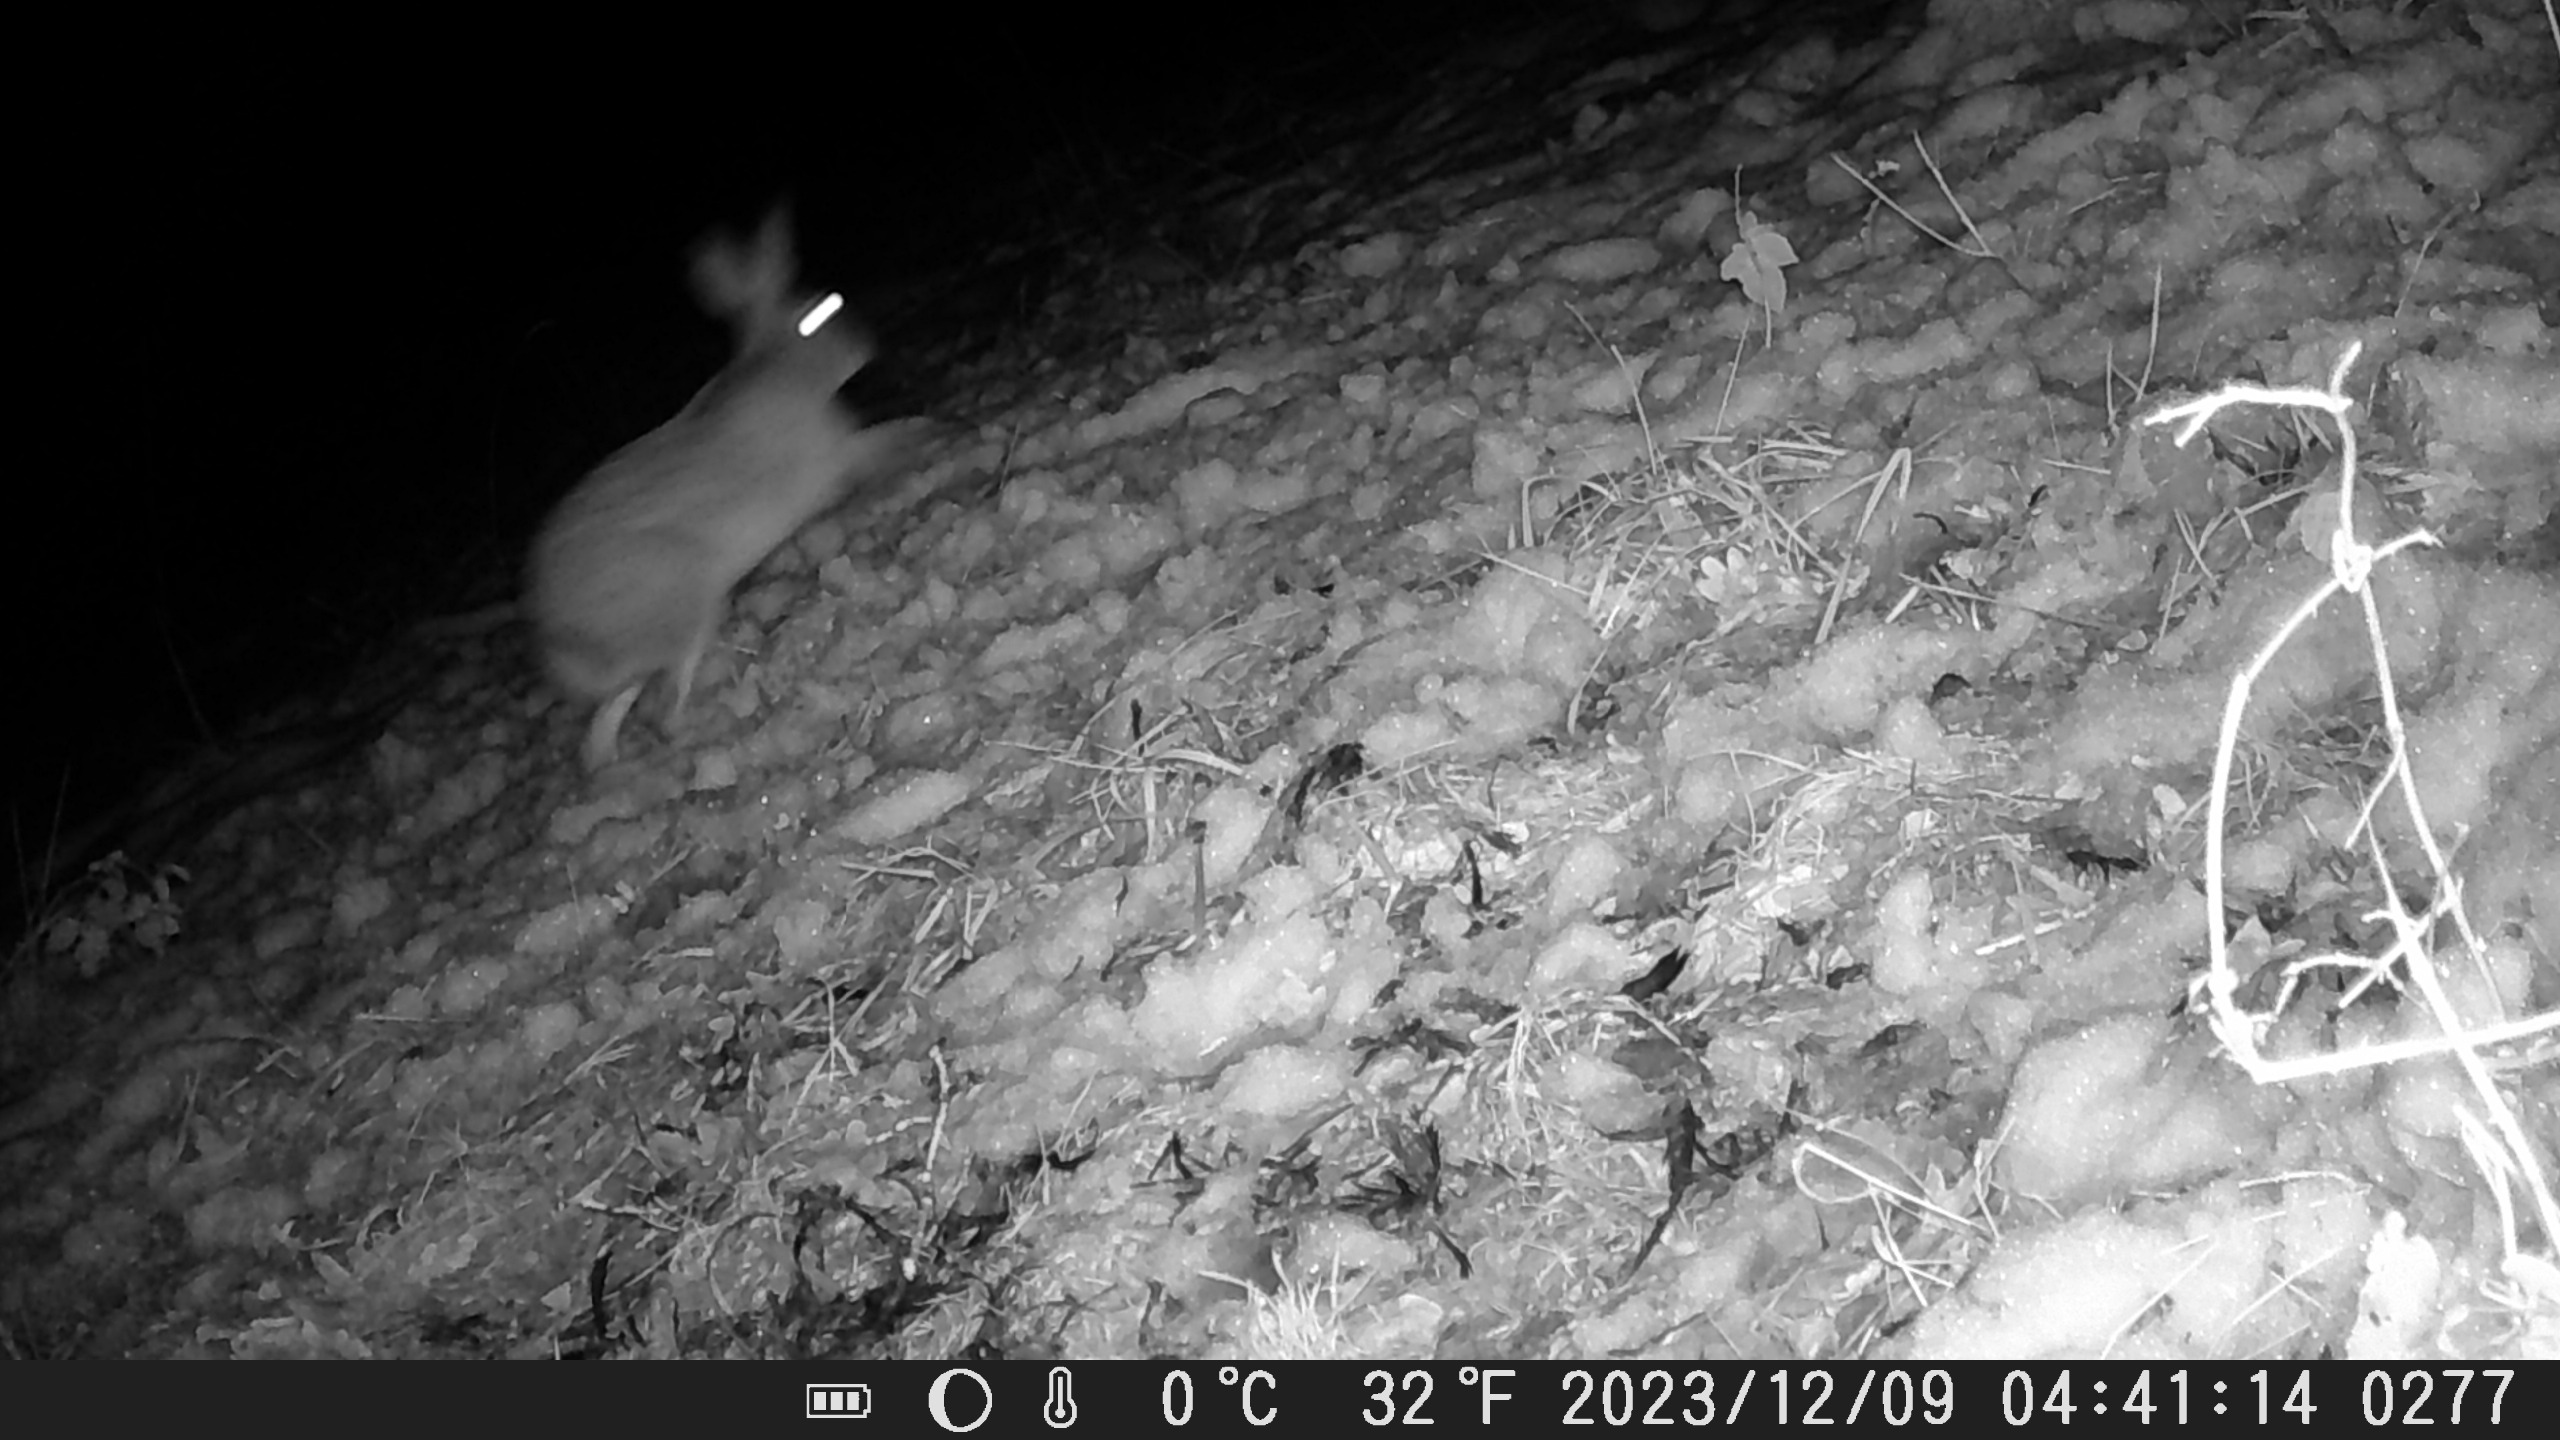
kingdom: Animalia
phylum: Chordata
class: Mammalia
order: Lagomorpha
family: Leporidae
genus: Lepus
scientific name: Lepus europaeus
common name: Hare
